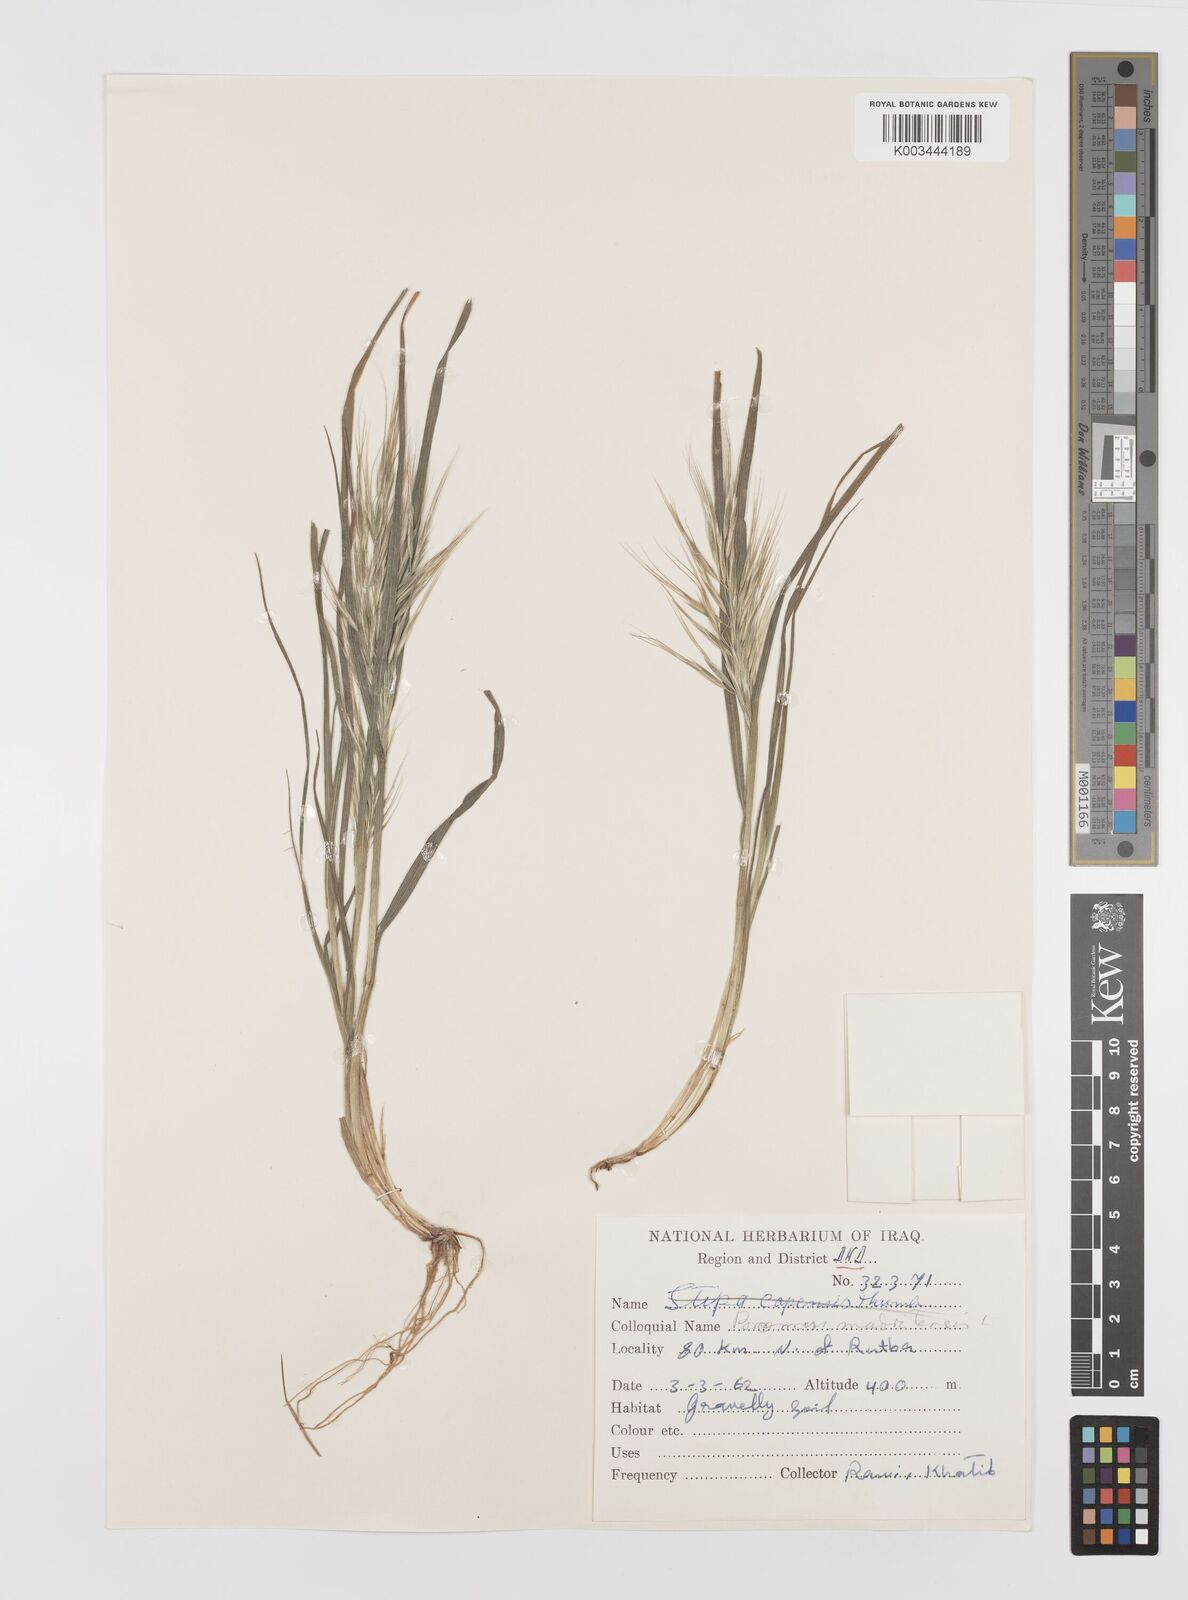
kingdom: Plantae
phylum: Tracheophyta
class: Liliopsida
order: Poales
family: Poaceae
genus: Bromus
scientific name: Bromus madritensis
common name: Compact brome
